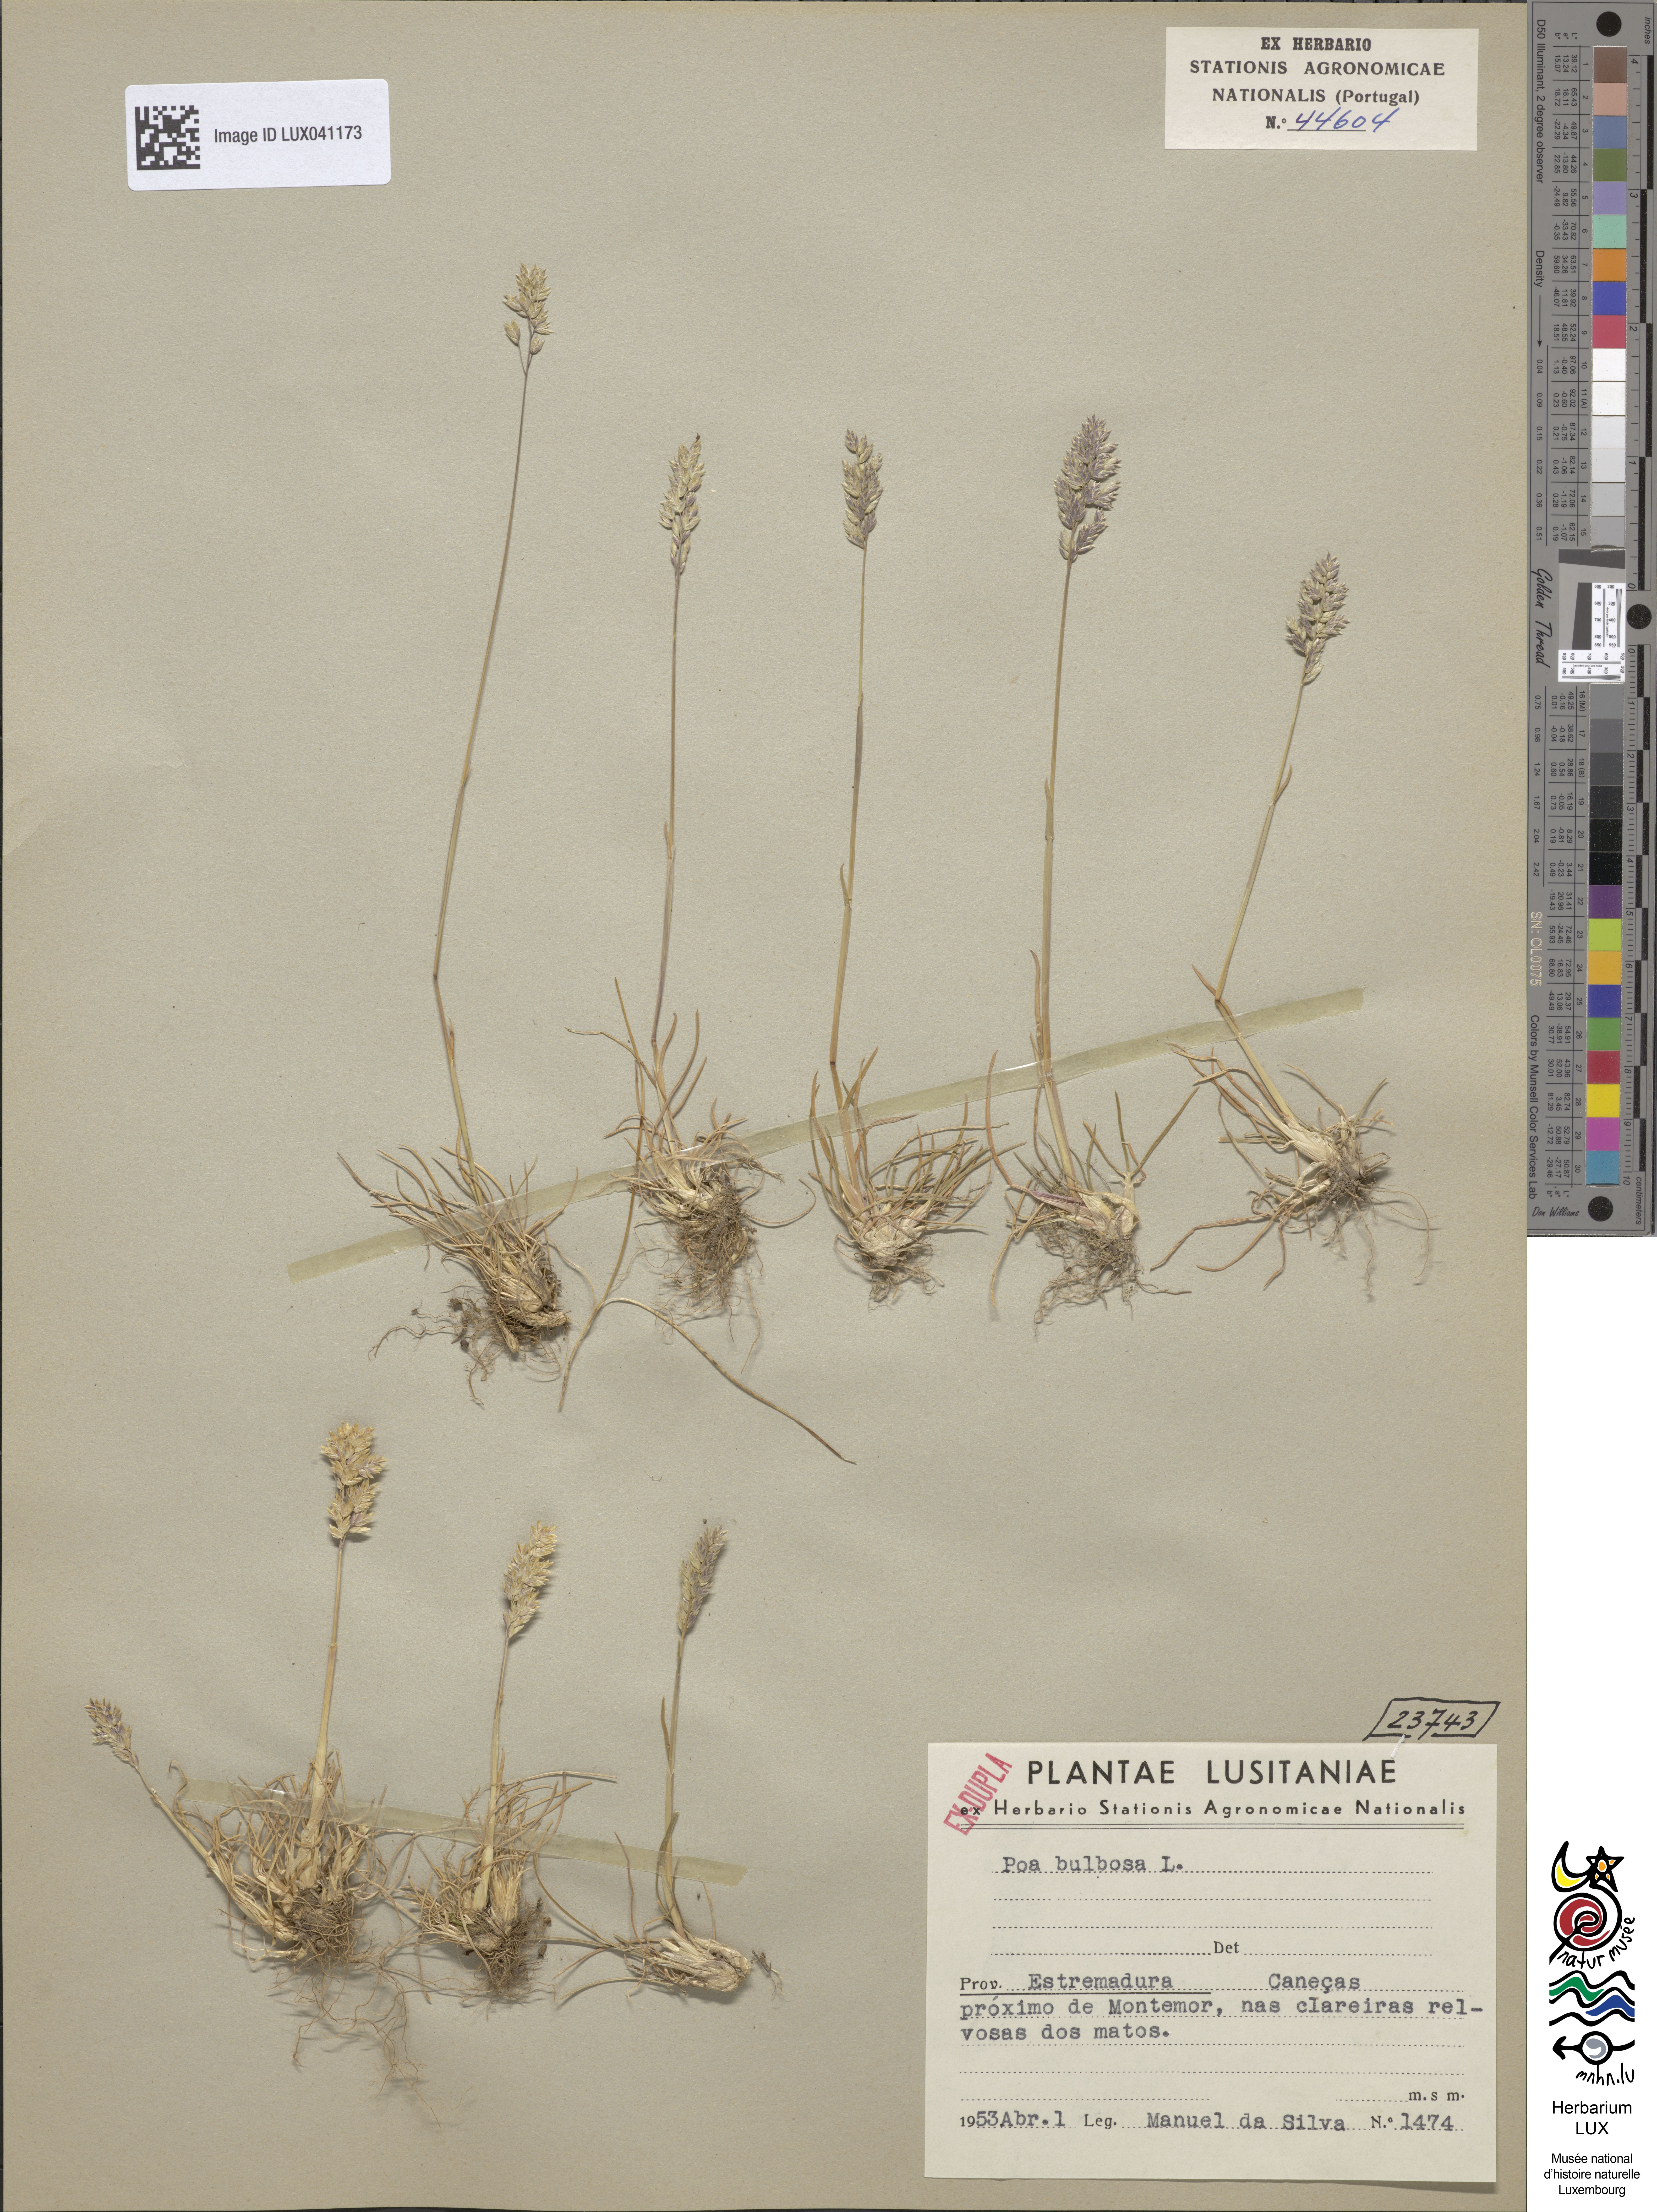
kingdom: Plantae
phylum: Tracheophyta
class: Liliopsida
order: Poales
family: Poaceae
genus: Poa
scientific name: Poa bulbosa
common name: Bulbous bluegrass
